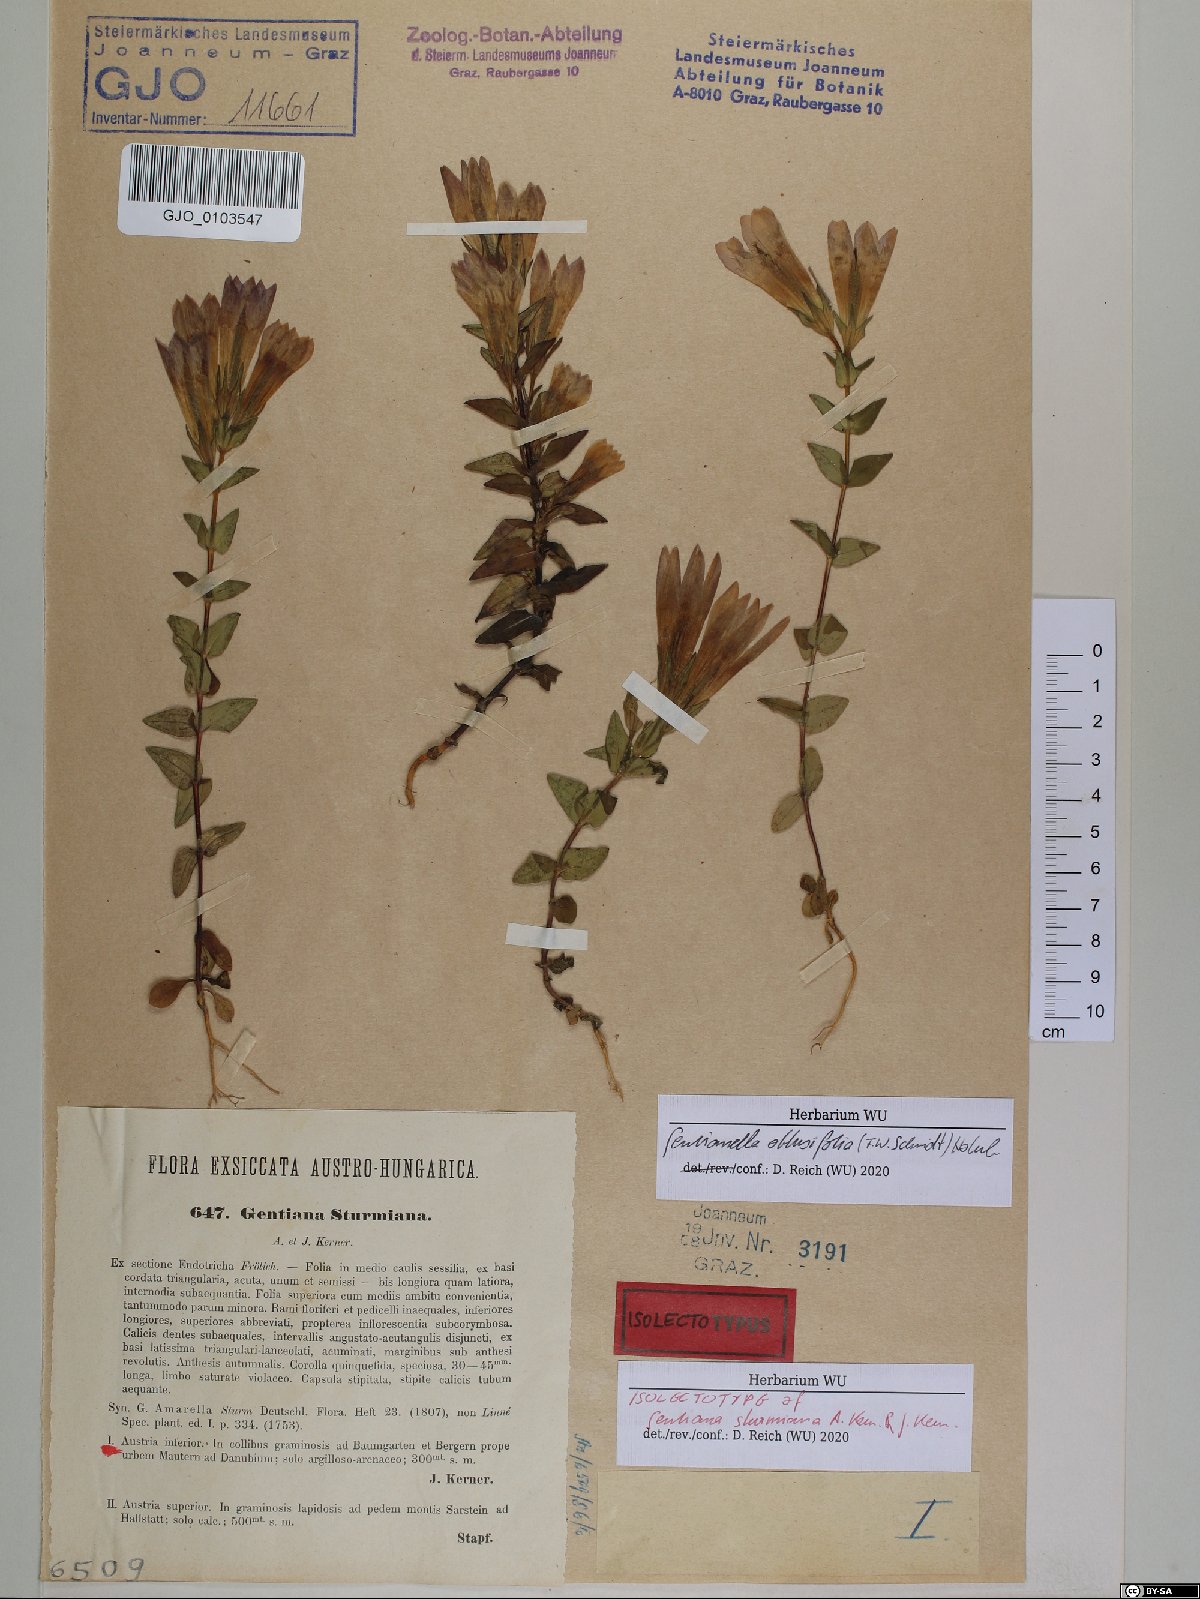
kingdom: Plantae
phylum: Tracheophyta
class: Magnoliopsida
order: Gentianales
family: Gentianaceae
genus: Gentianella
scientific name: Gentianella obtusifolia
